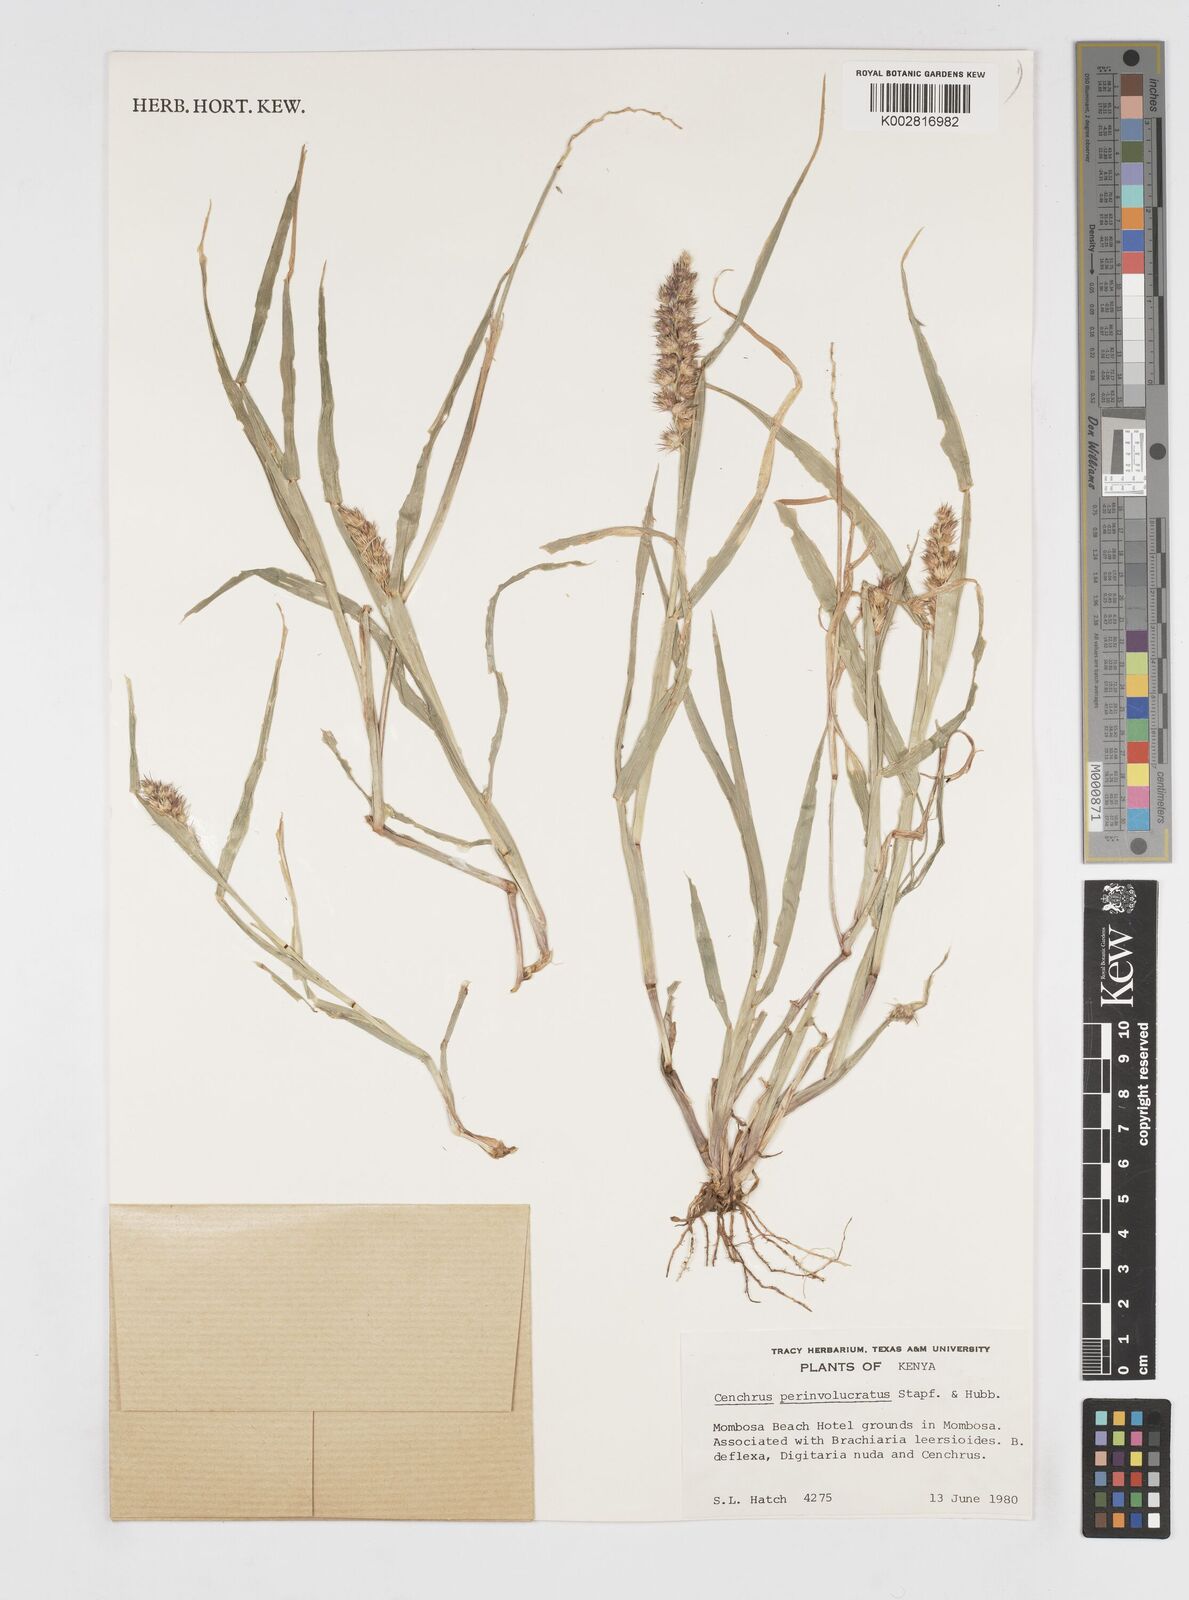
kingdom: Plantae
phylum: Tracheophyta
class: Liliopsida
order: Poales
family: Poaceae
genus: Cenchrus
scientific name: Cenchrus biflorus
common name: Indian sandbur
